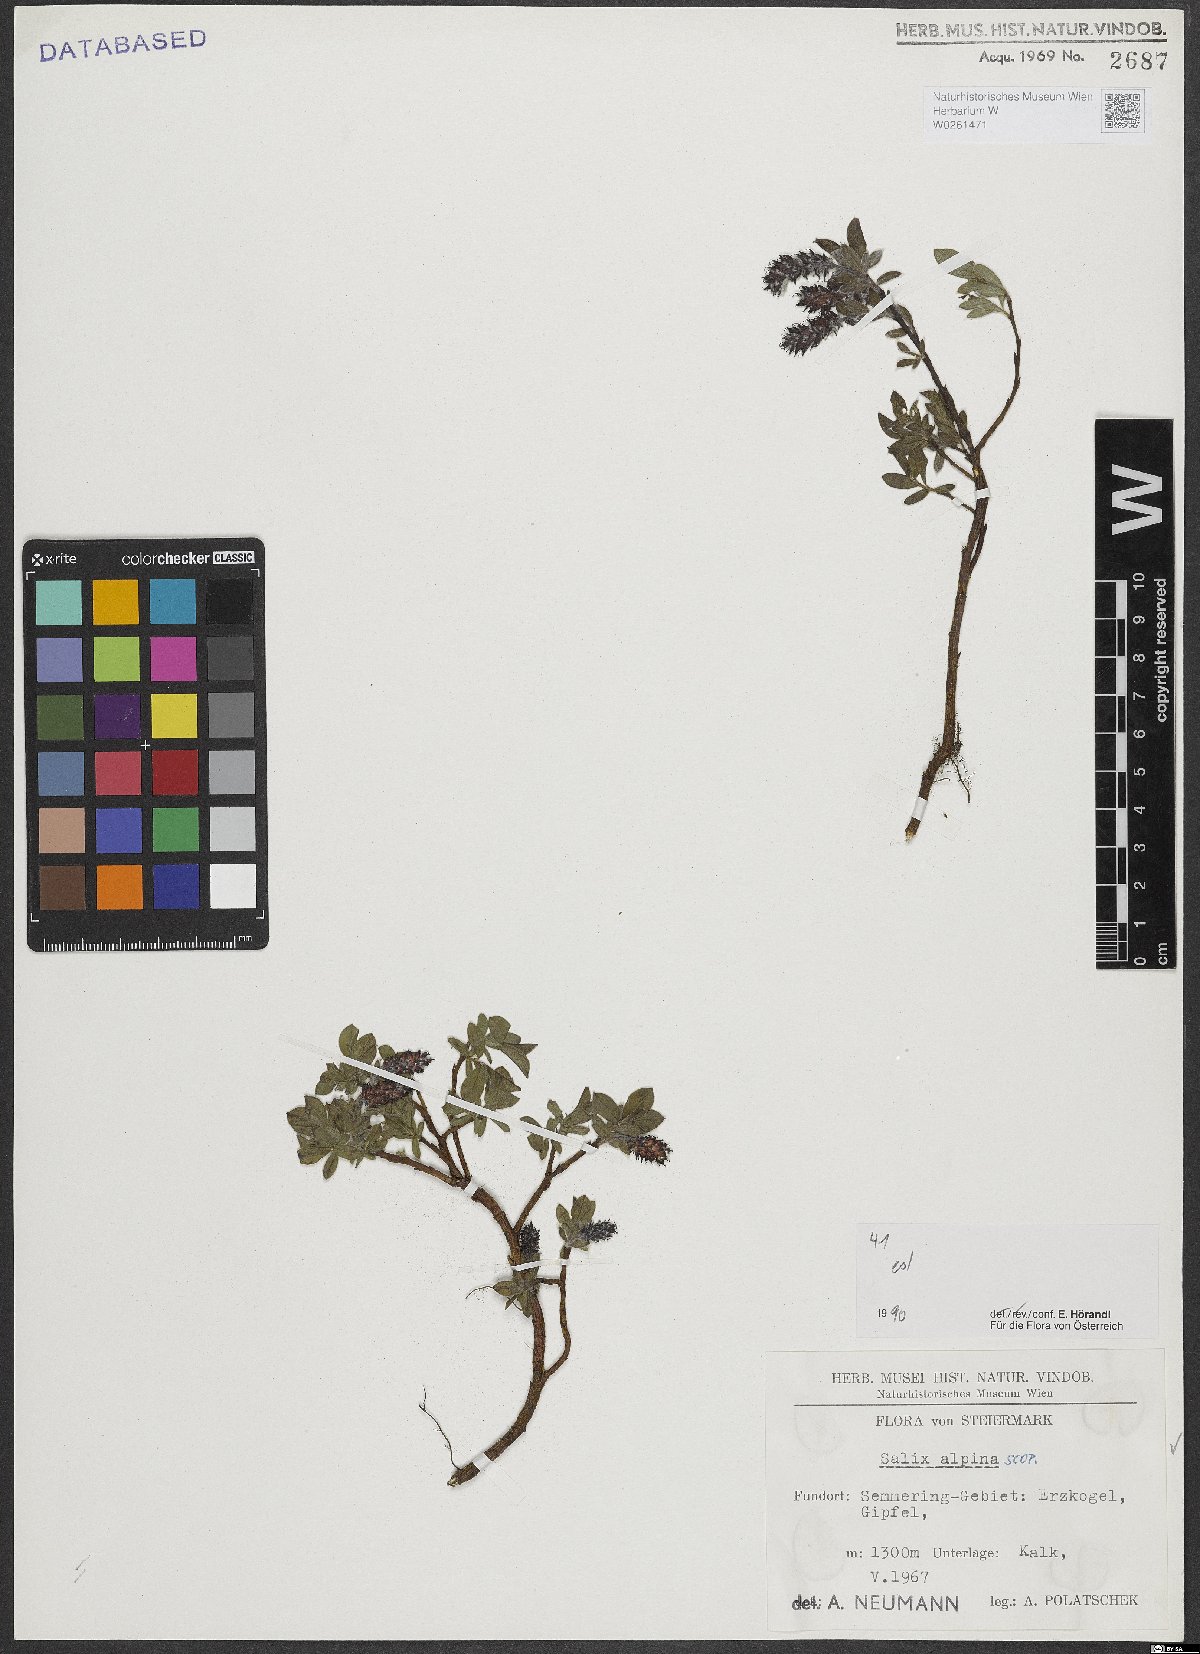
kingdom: Plantae
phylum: Tracheophyta
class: Magnoliopsida
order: Malpighiales
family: Salicaceae
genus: Salix
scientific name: Salix alpina
